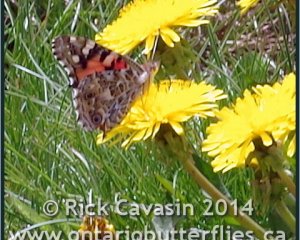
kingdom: Animalia
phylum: Arthropoda
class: Insecta
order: Lepidoptera
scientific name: Lepidoptera
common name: Butterflies
